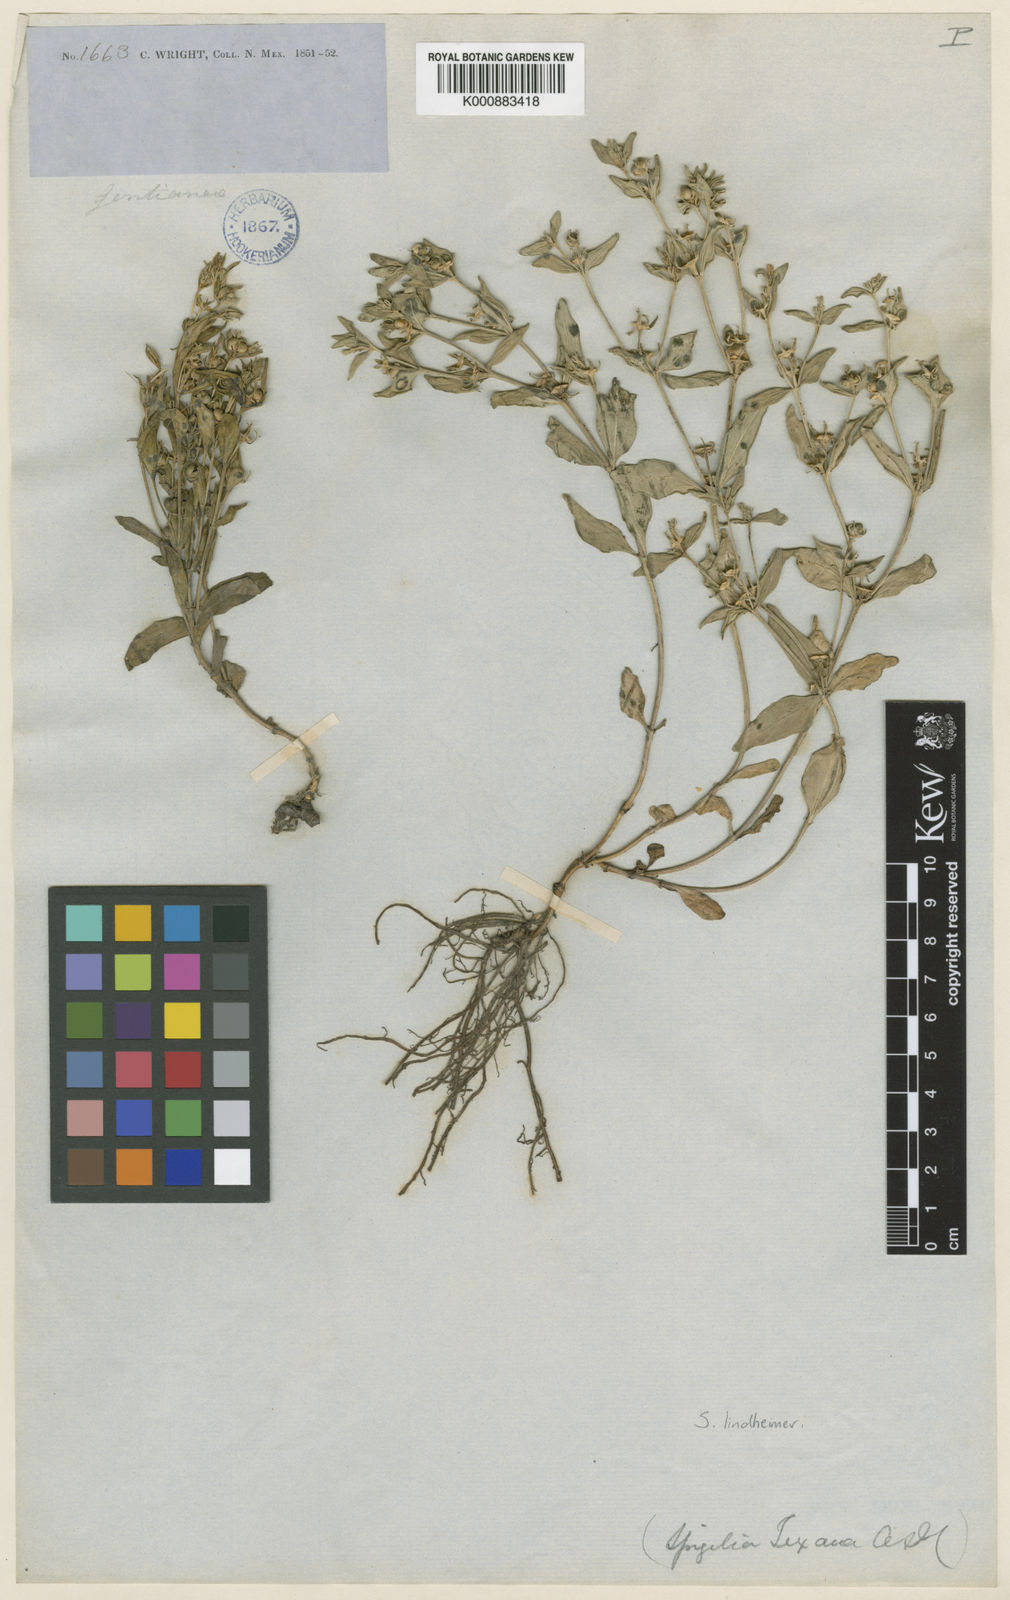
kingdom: Plantae
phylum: Tracheophyta
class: Magnoliopsida
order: Gentianales
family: Loganiaceae
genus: Spigelia
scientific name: Spigelia hedyotidea
